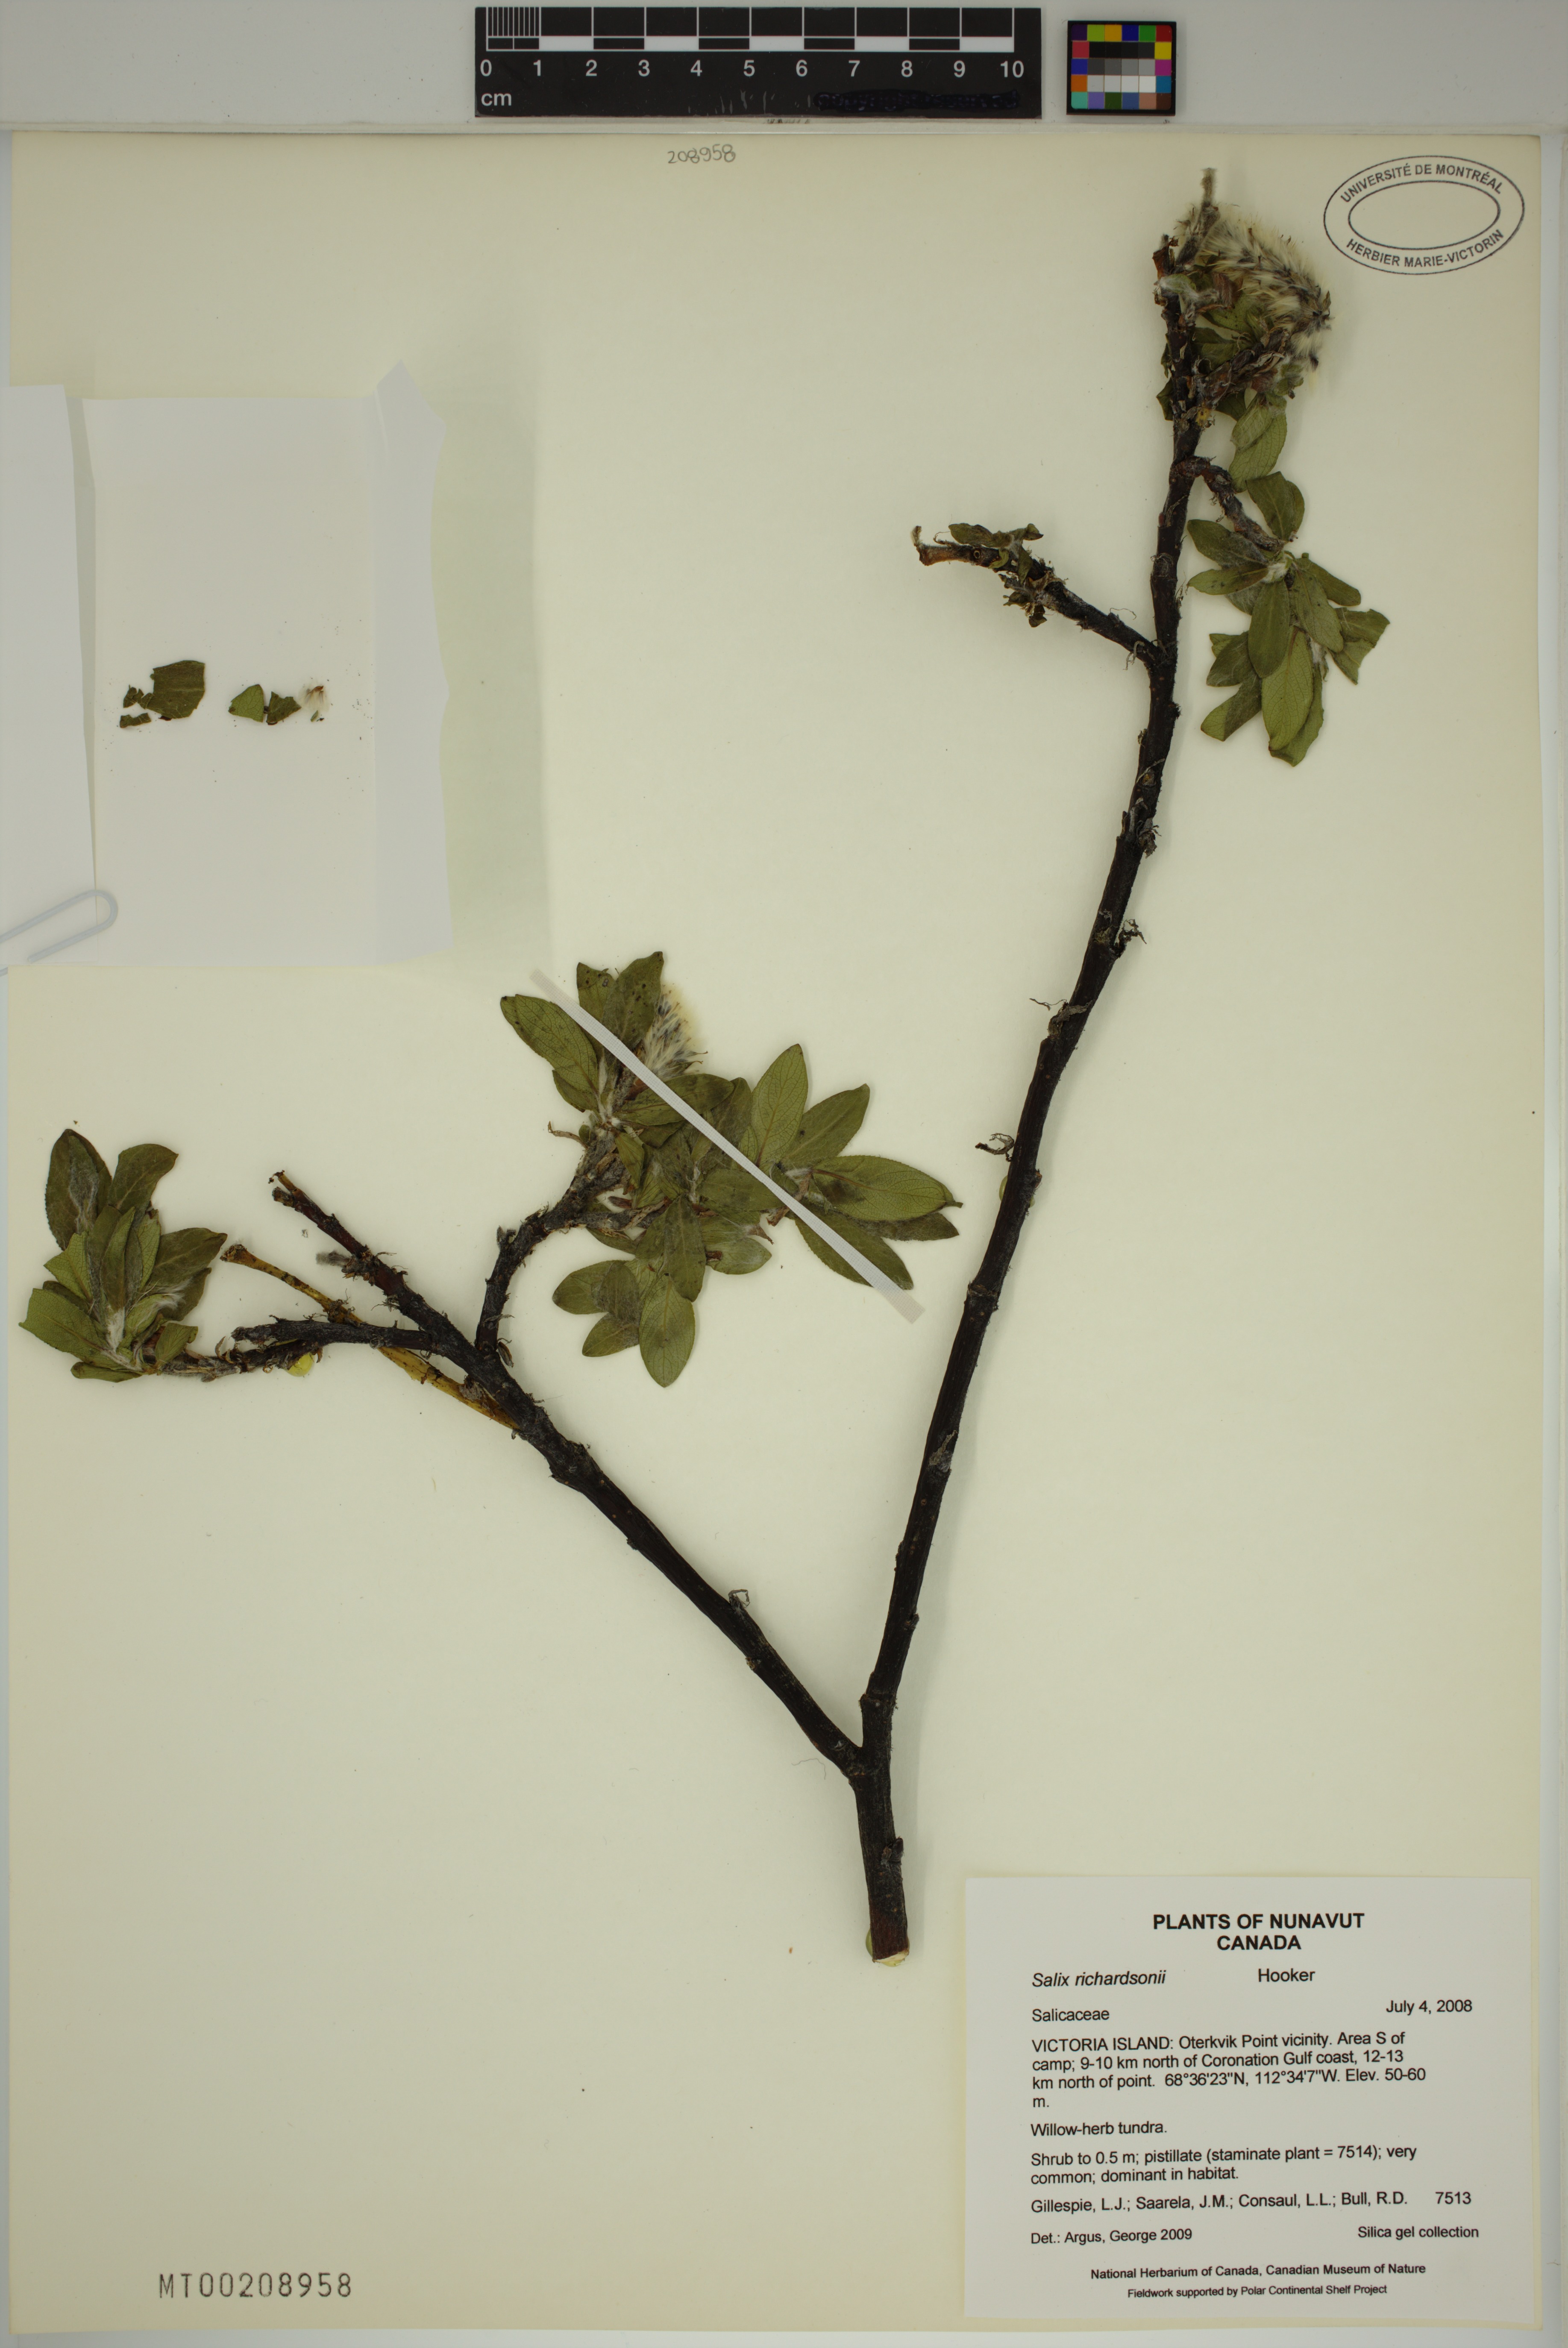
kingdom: Plantae
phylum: Tracheophyta
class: Magnoliopsida
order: Malpighiales
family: Salicaceae
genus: Salix
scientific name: Salix richardsonii
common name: Richardson’s willow
